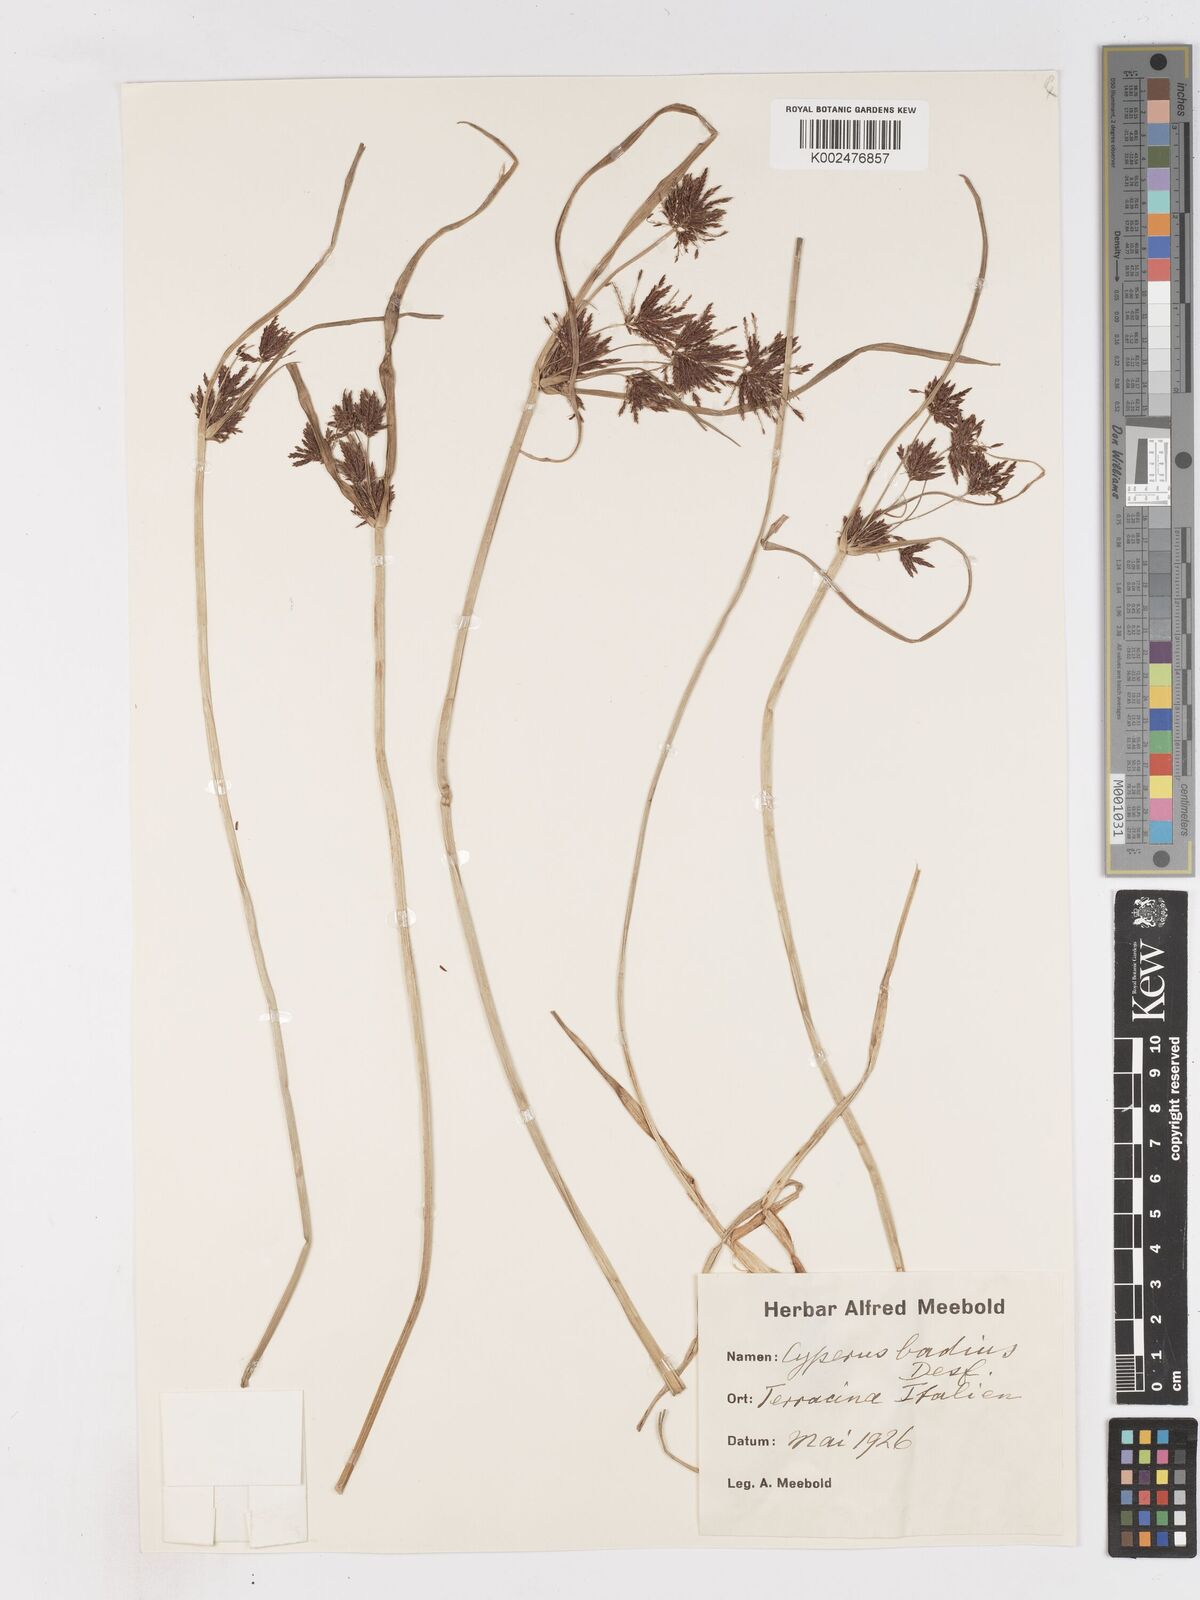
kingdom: Plantae
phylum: Tracheophyta
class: Liliopsida
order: Poales
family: Cyperaceae
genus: Cyperus
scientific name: Cyperus longus
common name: Galingale
